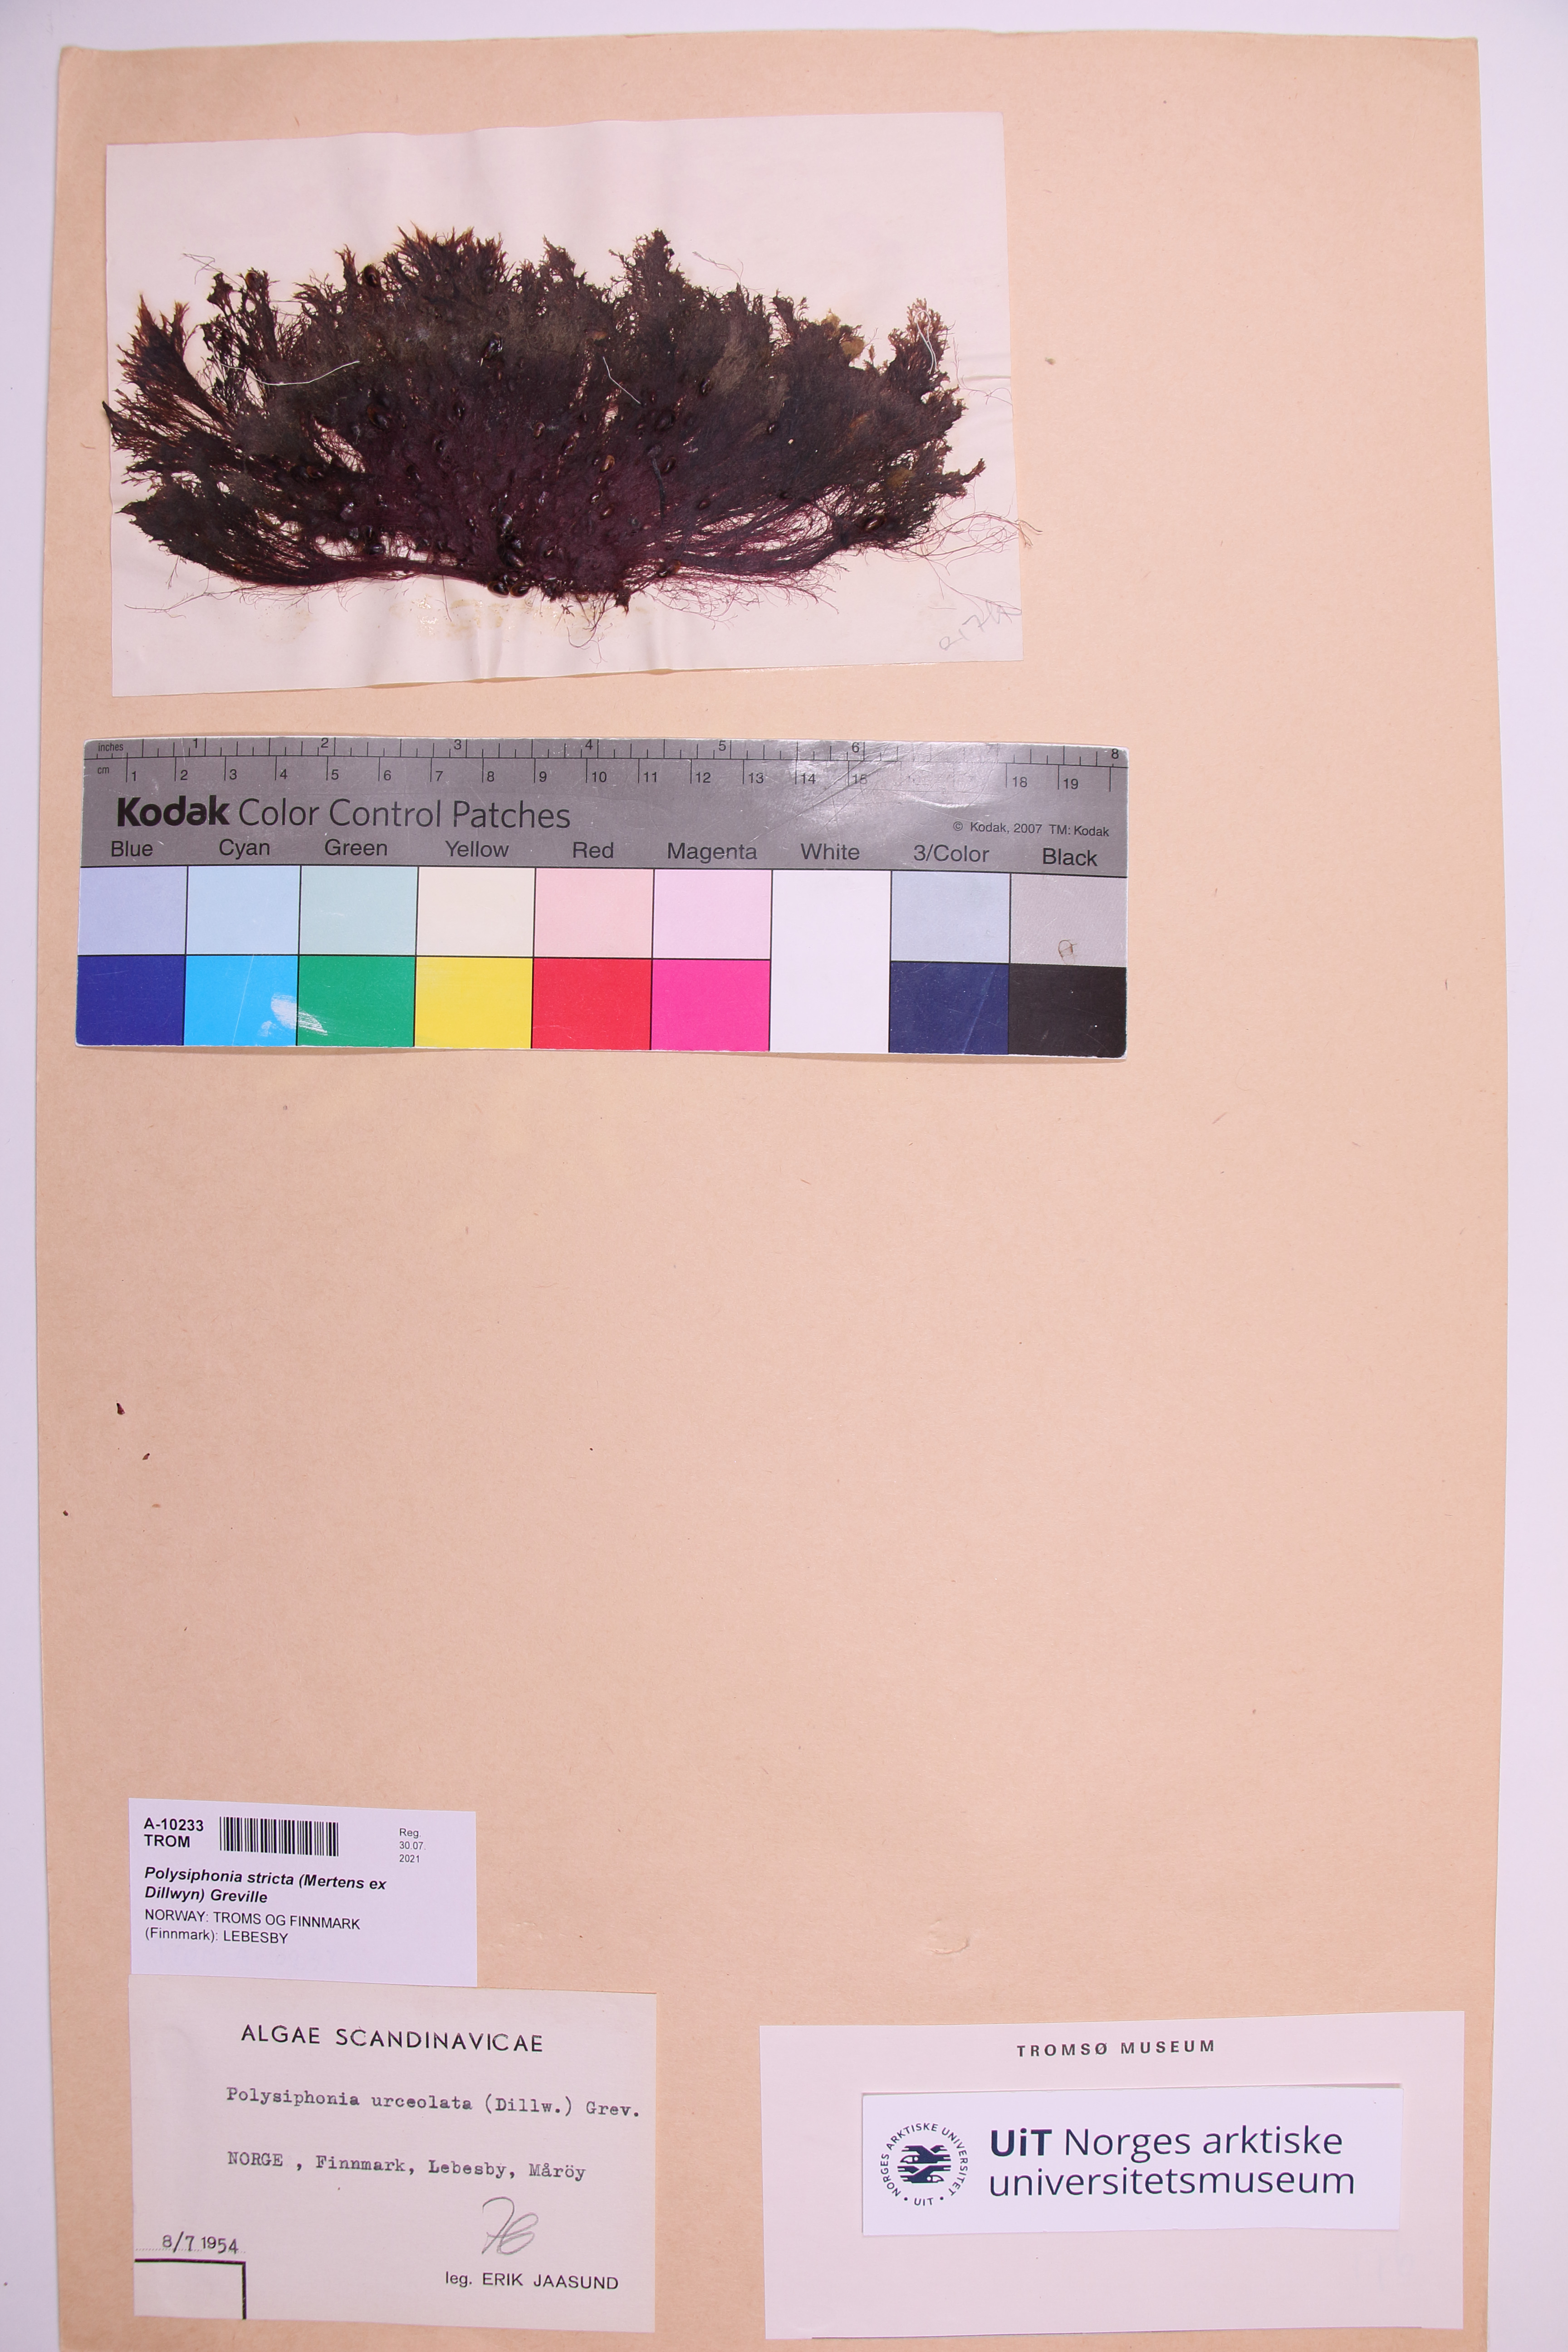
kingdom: Plantae
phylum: Rhodophyta
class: Florideophyceae
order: Ceramiales
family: Rhodomelaceae
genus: Polysiphonia
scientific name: Polysiphonia stricta
